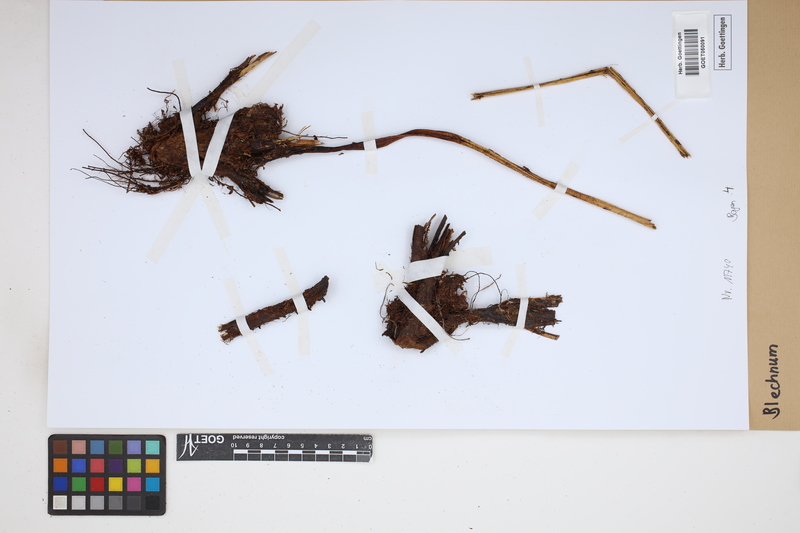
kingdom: Plantae
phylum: Tracheophyta
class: Polypodiopsida
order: Polypodiales
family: Blechnaceae
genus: Blechnum
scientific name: Blechnum
